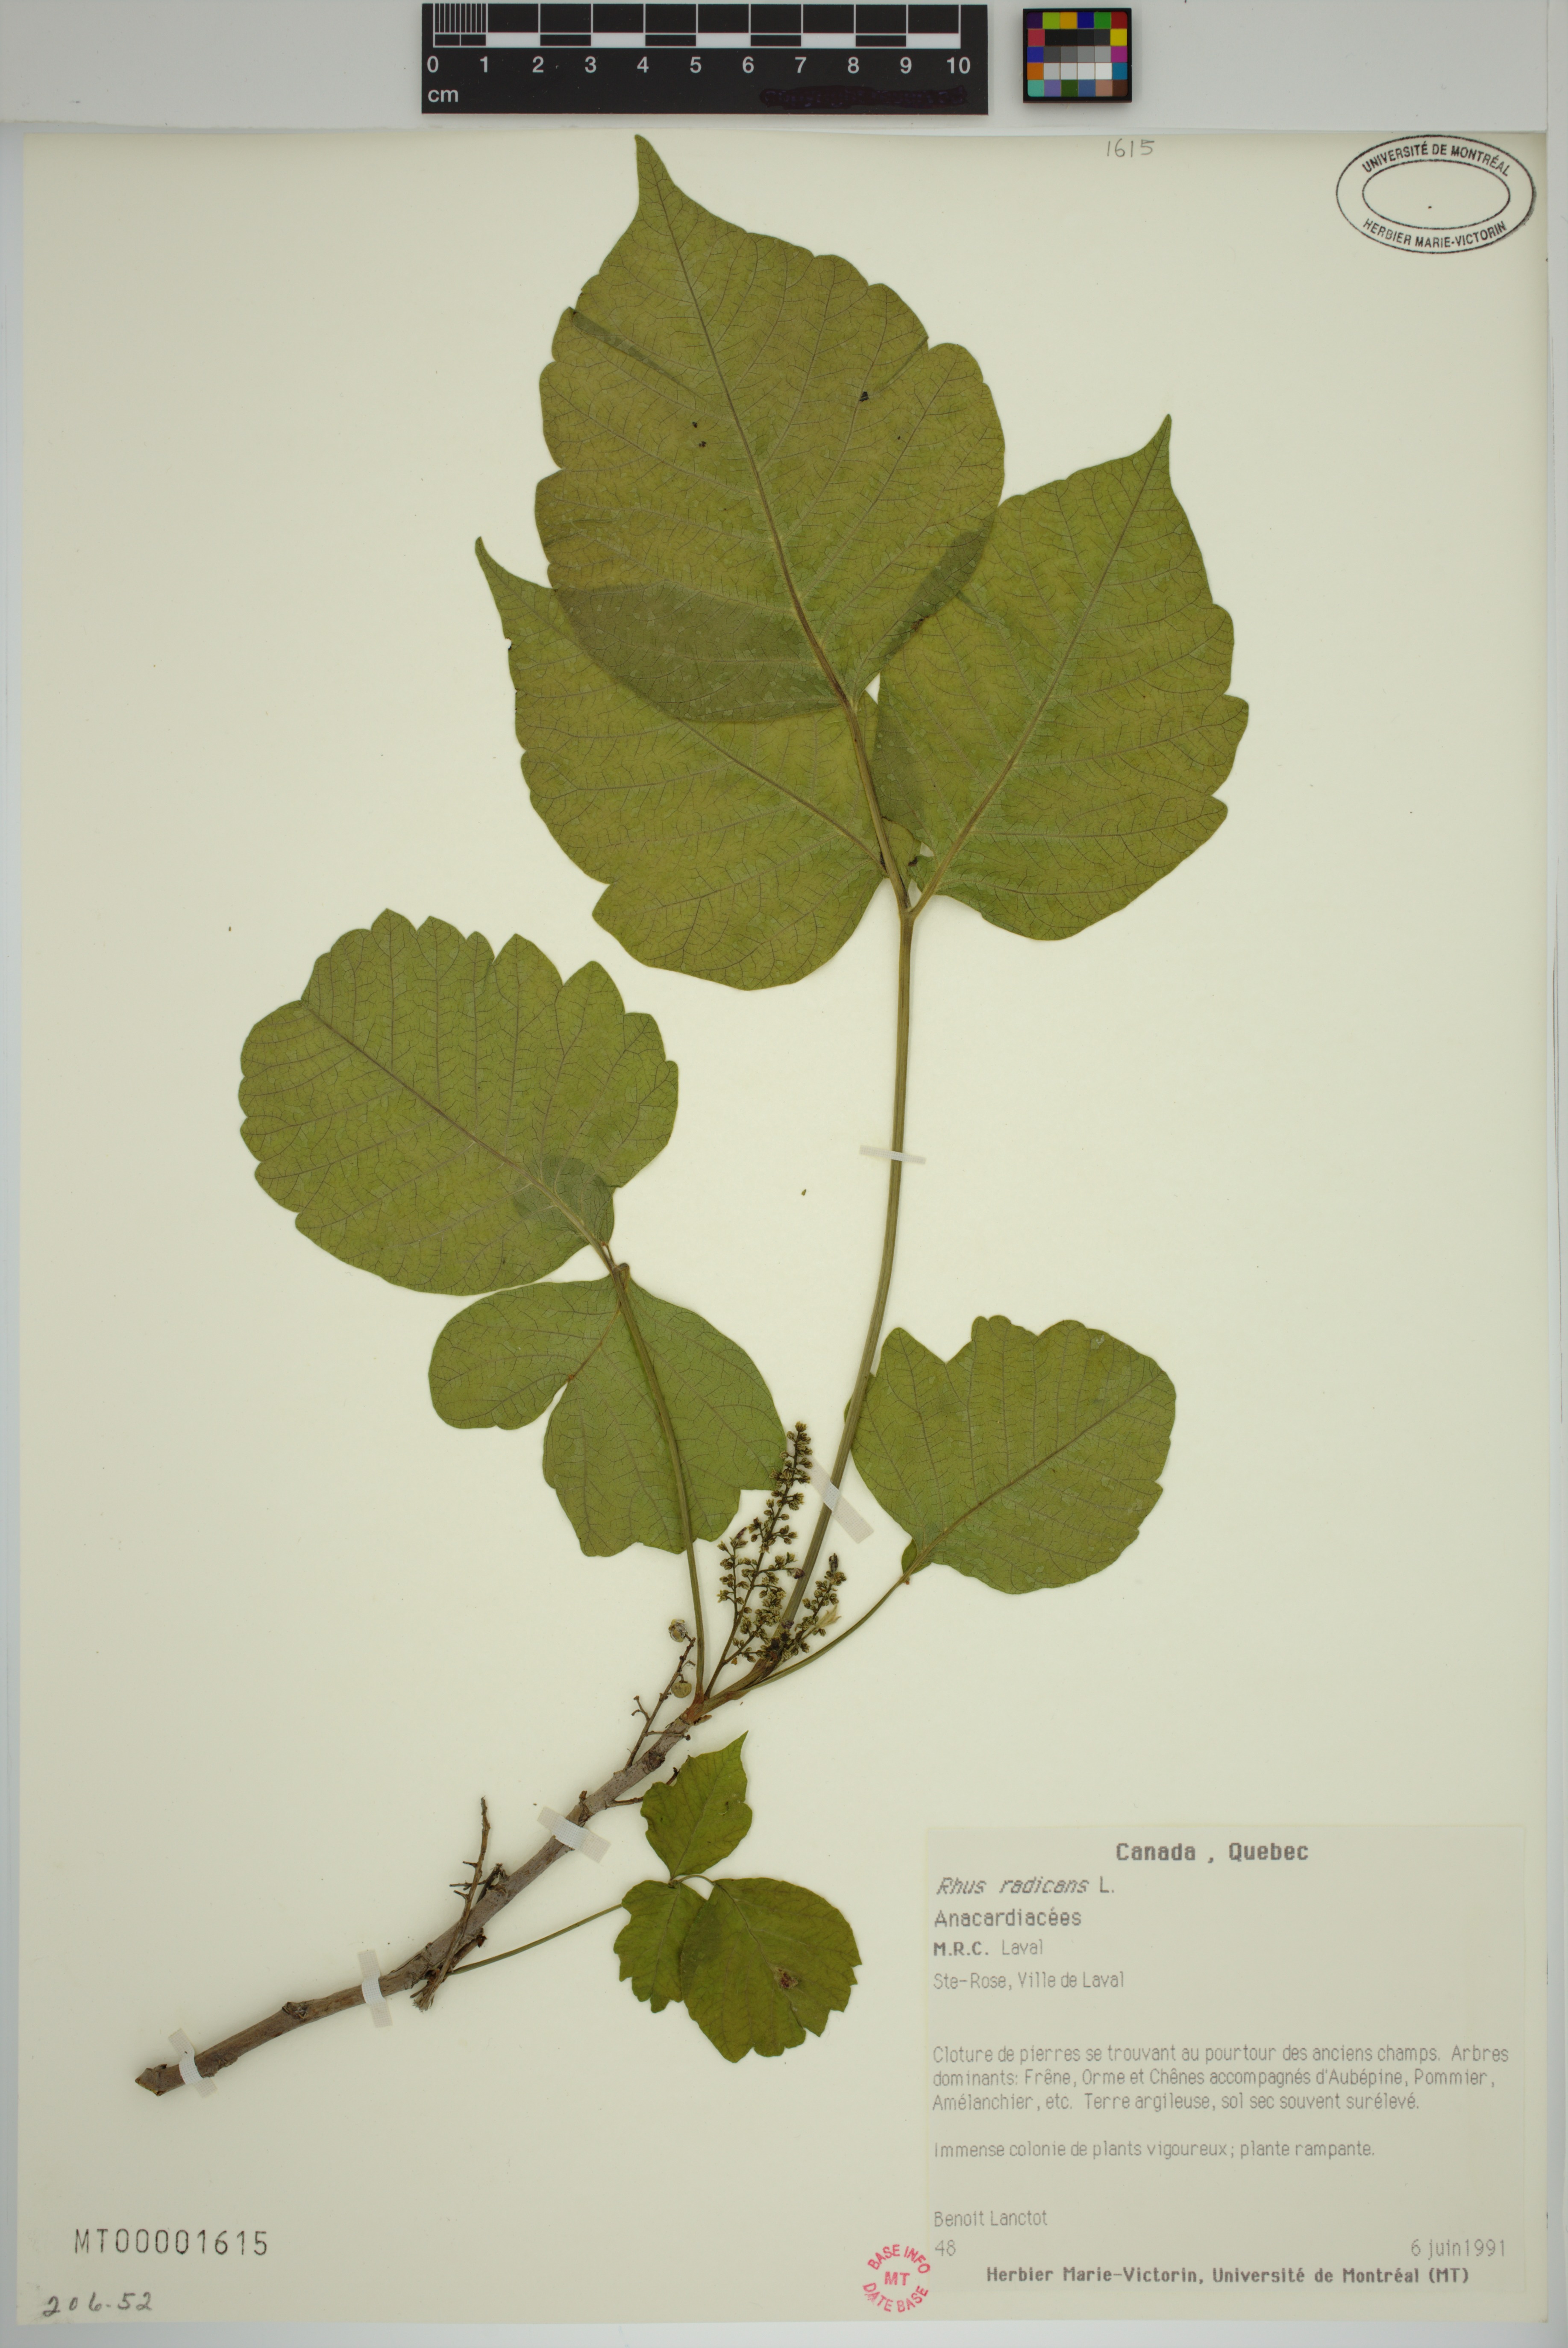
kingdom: Plantae
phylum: Tracheophyta
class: Magnoliopsida
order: Sapindales
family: Anacardiaceae
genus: Toxicodendron
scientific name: Toxicodendron radicans
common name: Poison ivy
